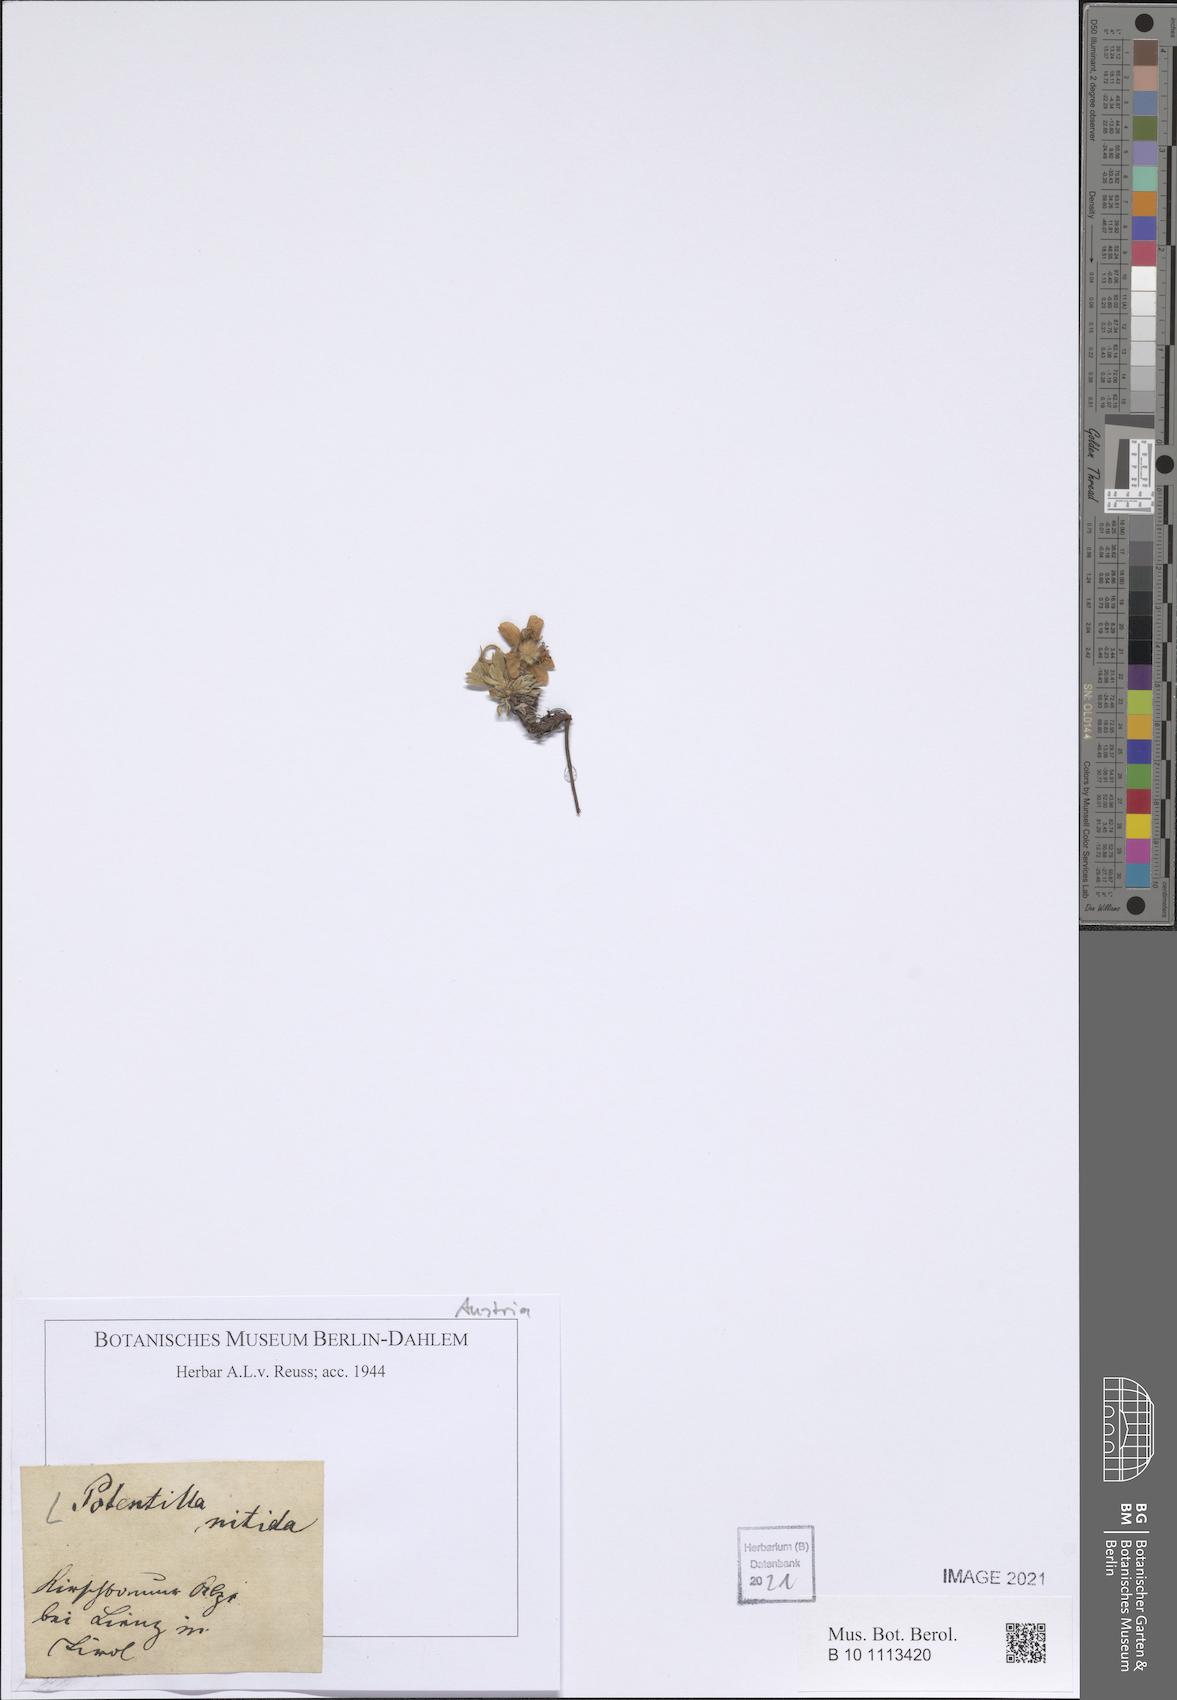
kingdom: Plantae
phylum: Tracheophyta
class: Magnoliopsida
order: Rosales
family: Rosaceae
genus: Potentilla
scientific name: Potentilla nitida
